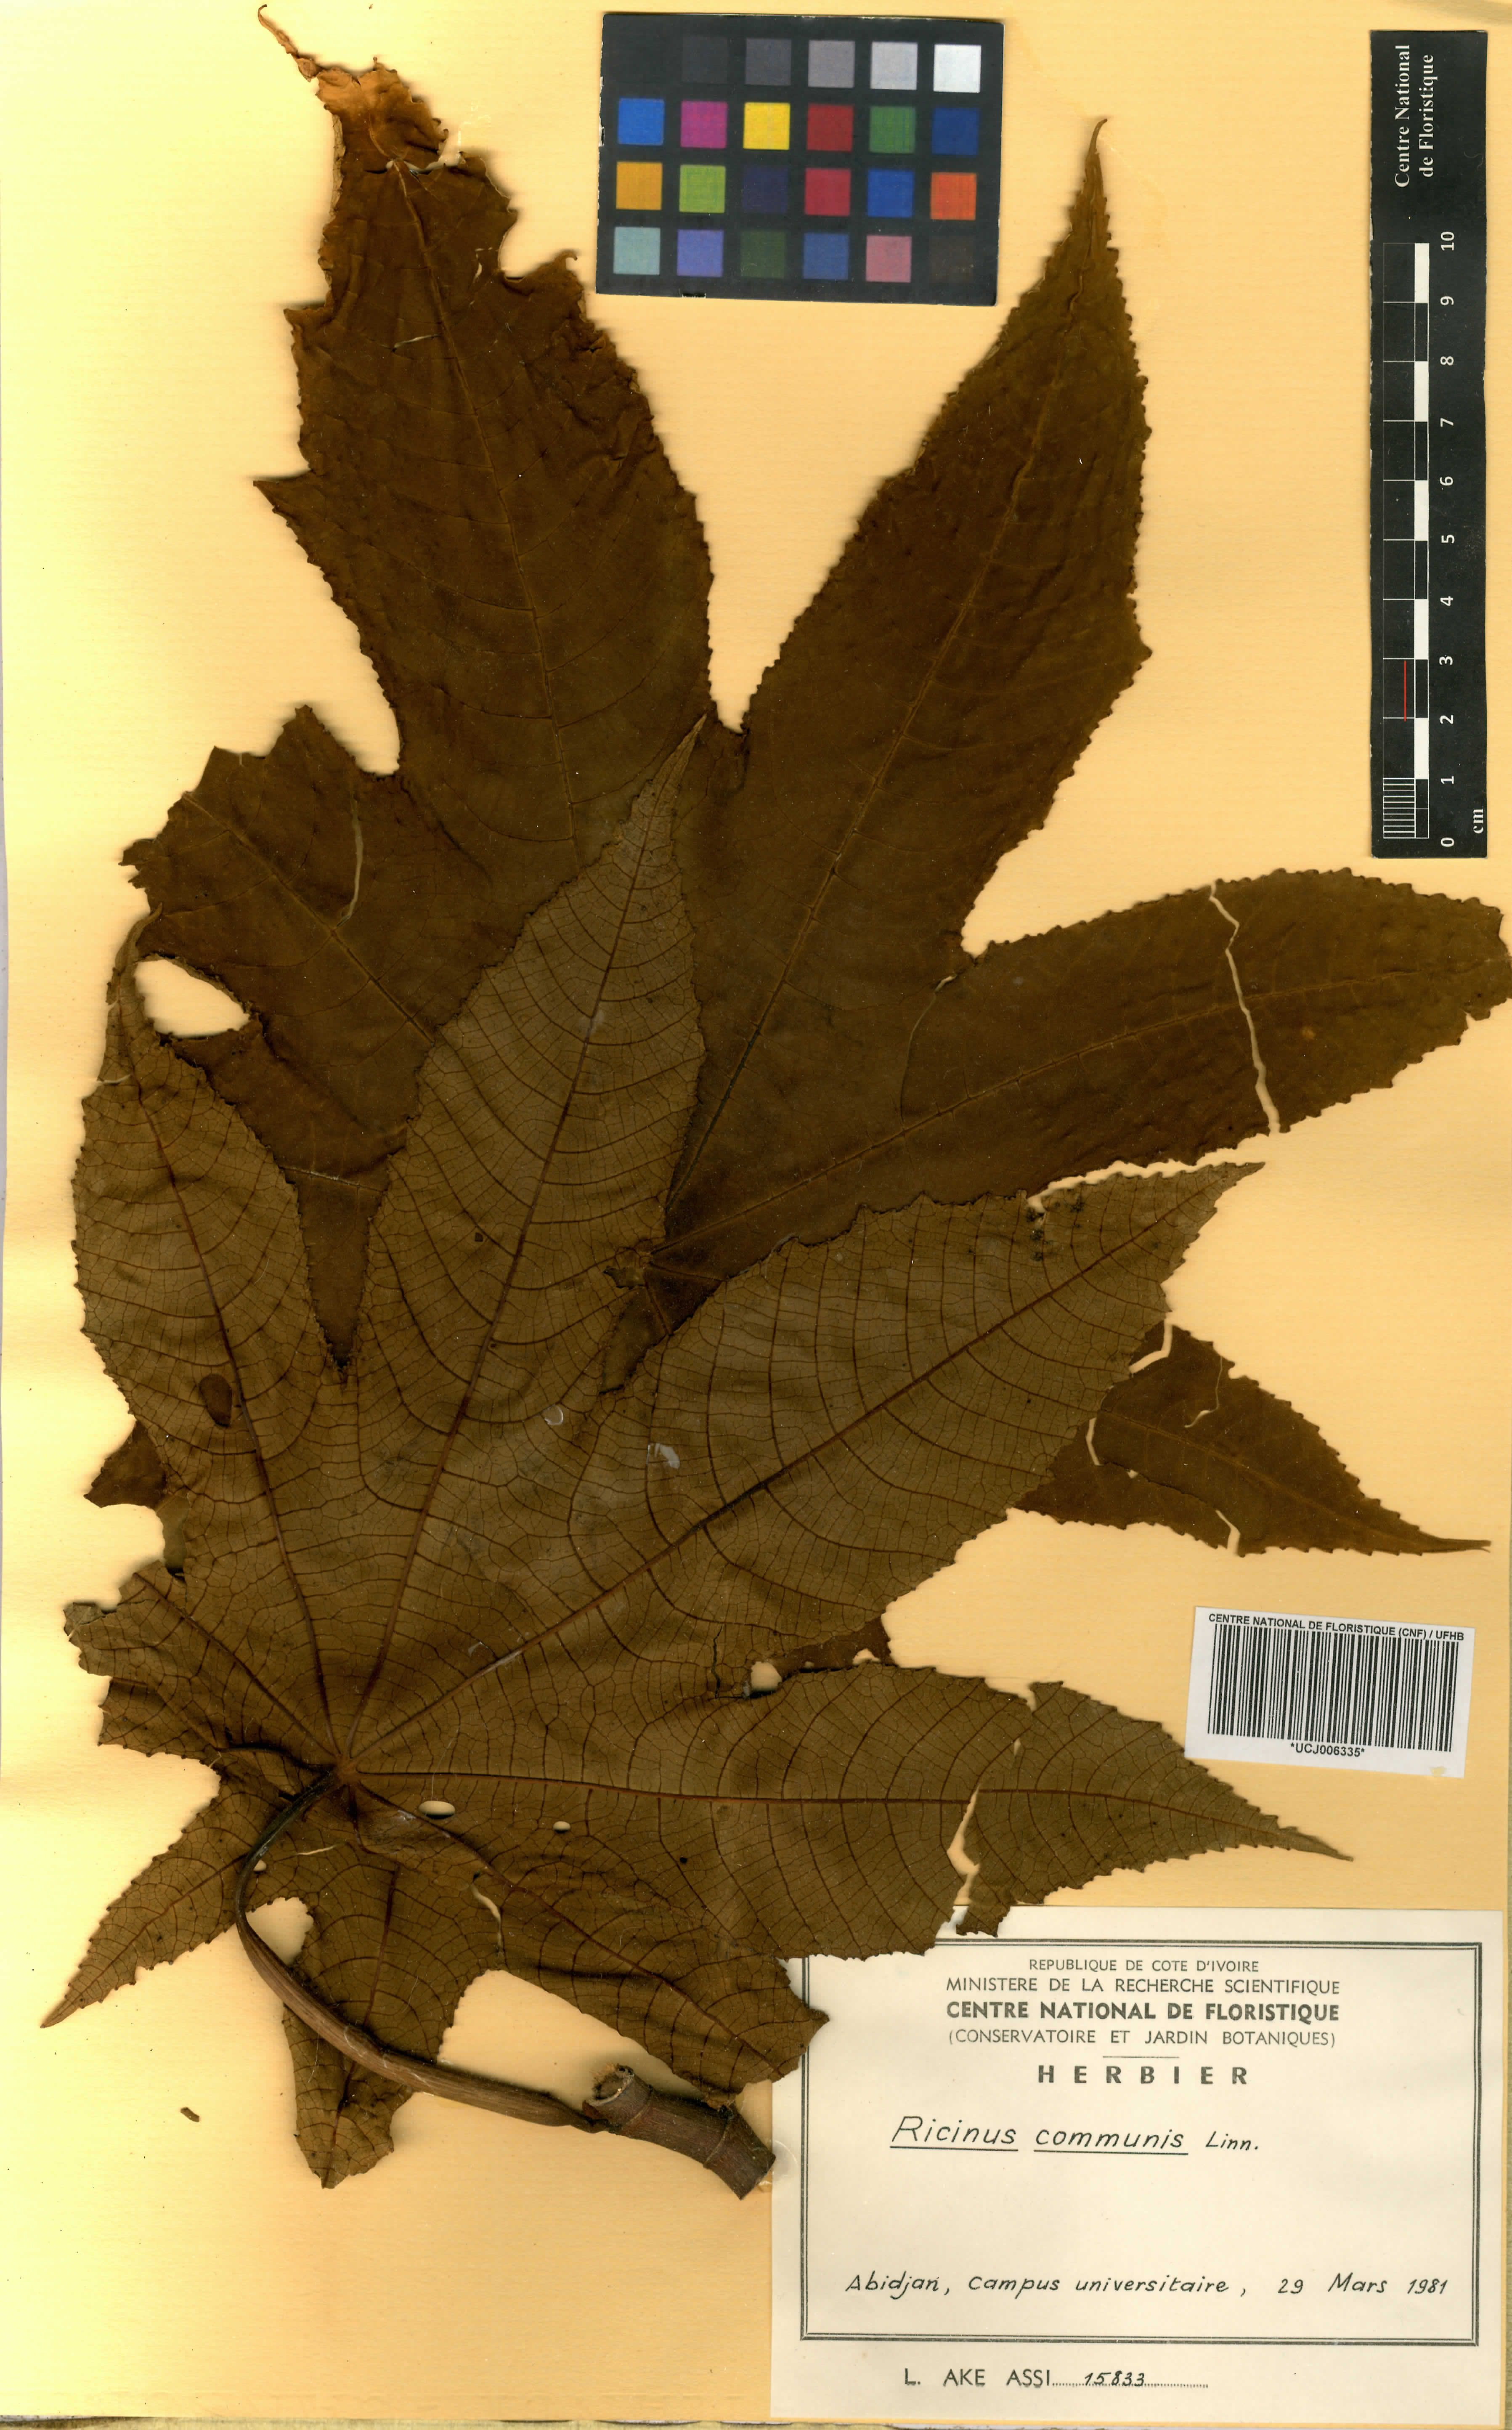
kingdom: Plantae
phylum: Tracheophyta
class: Magnoliopsida
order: Malpighiales
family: Euphorbiaceae
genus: Ricinus
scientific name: Ricinus communis
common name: Castor-oil-plant
